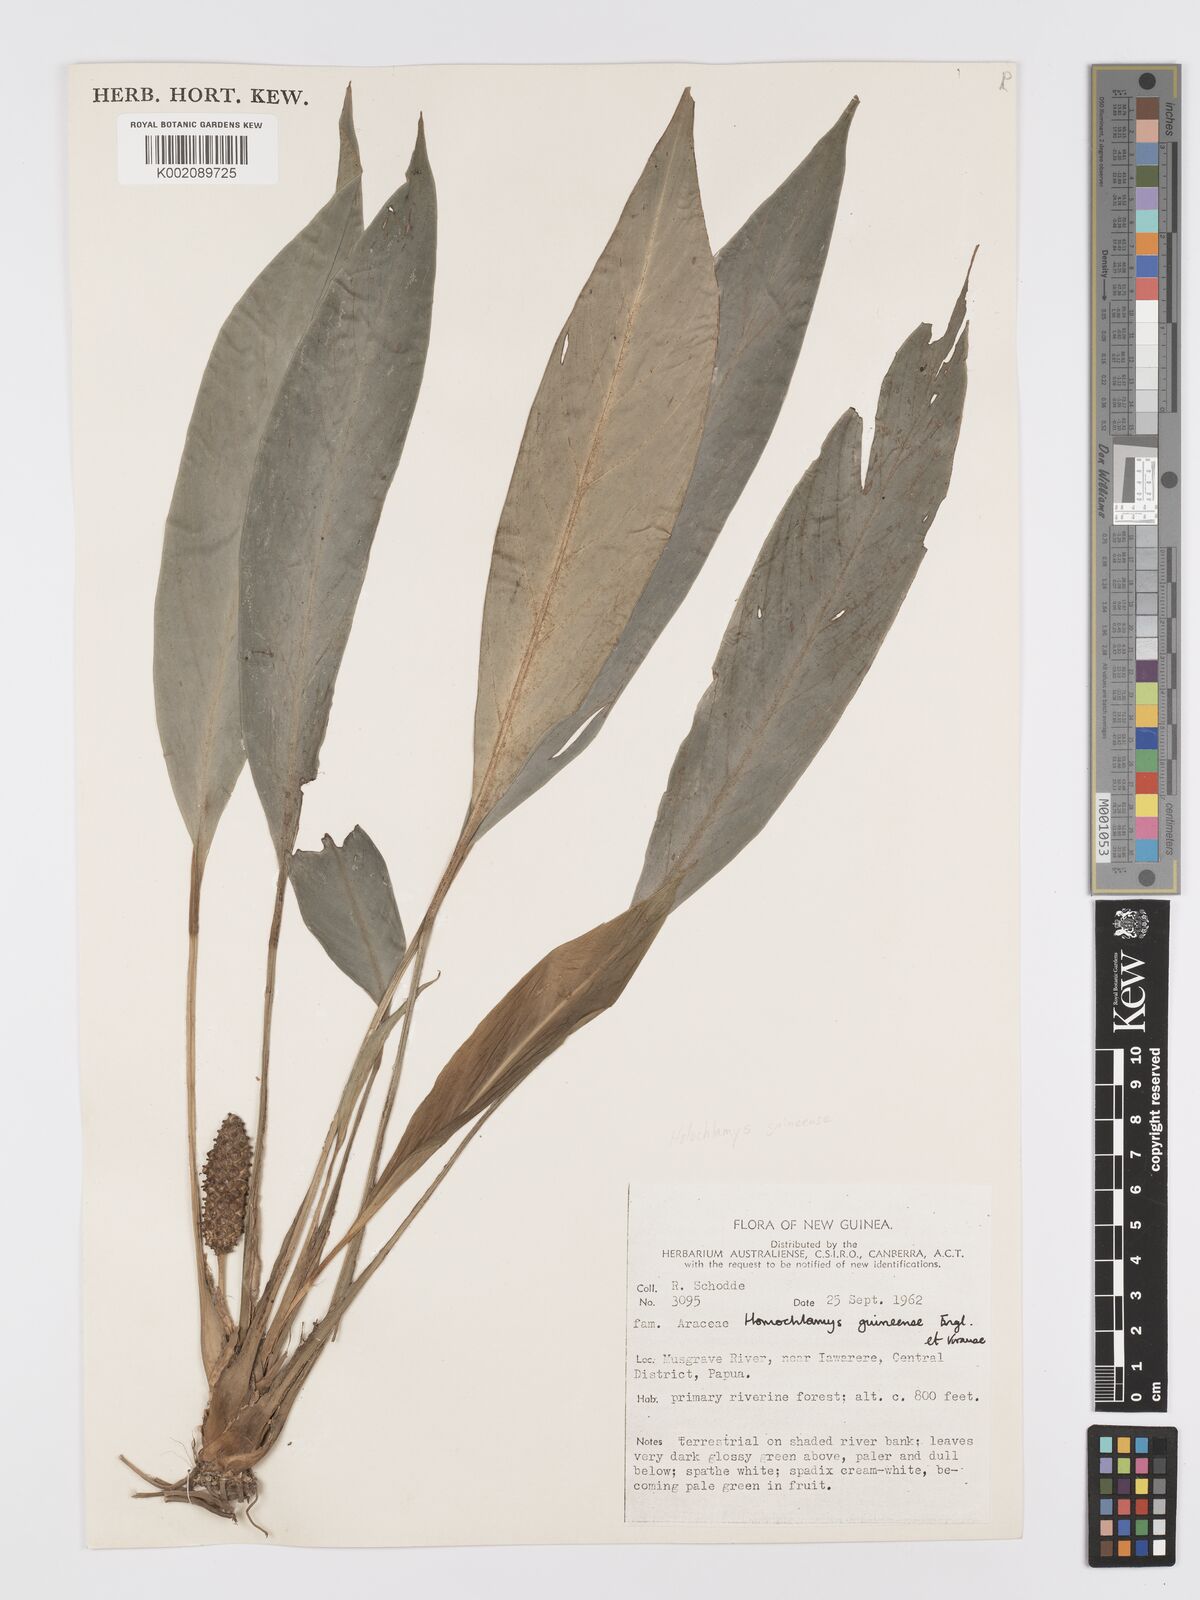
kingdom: Plantae
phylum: Tracheophyta
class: Liliopsida
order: Alismatales
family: Araceae
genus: Holochlamys
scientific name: Holochlamys beccarii
